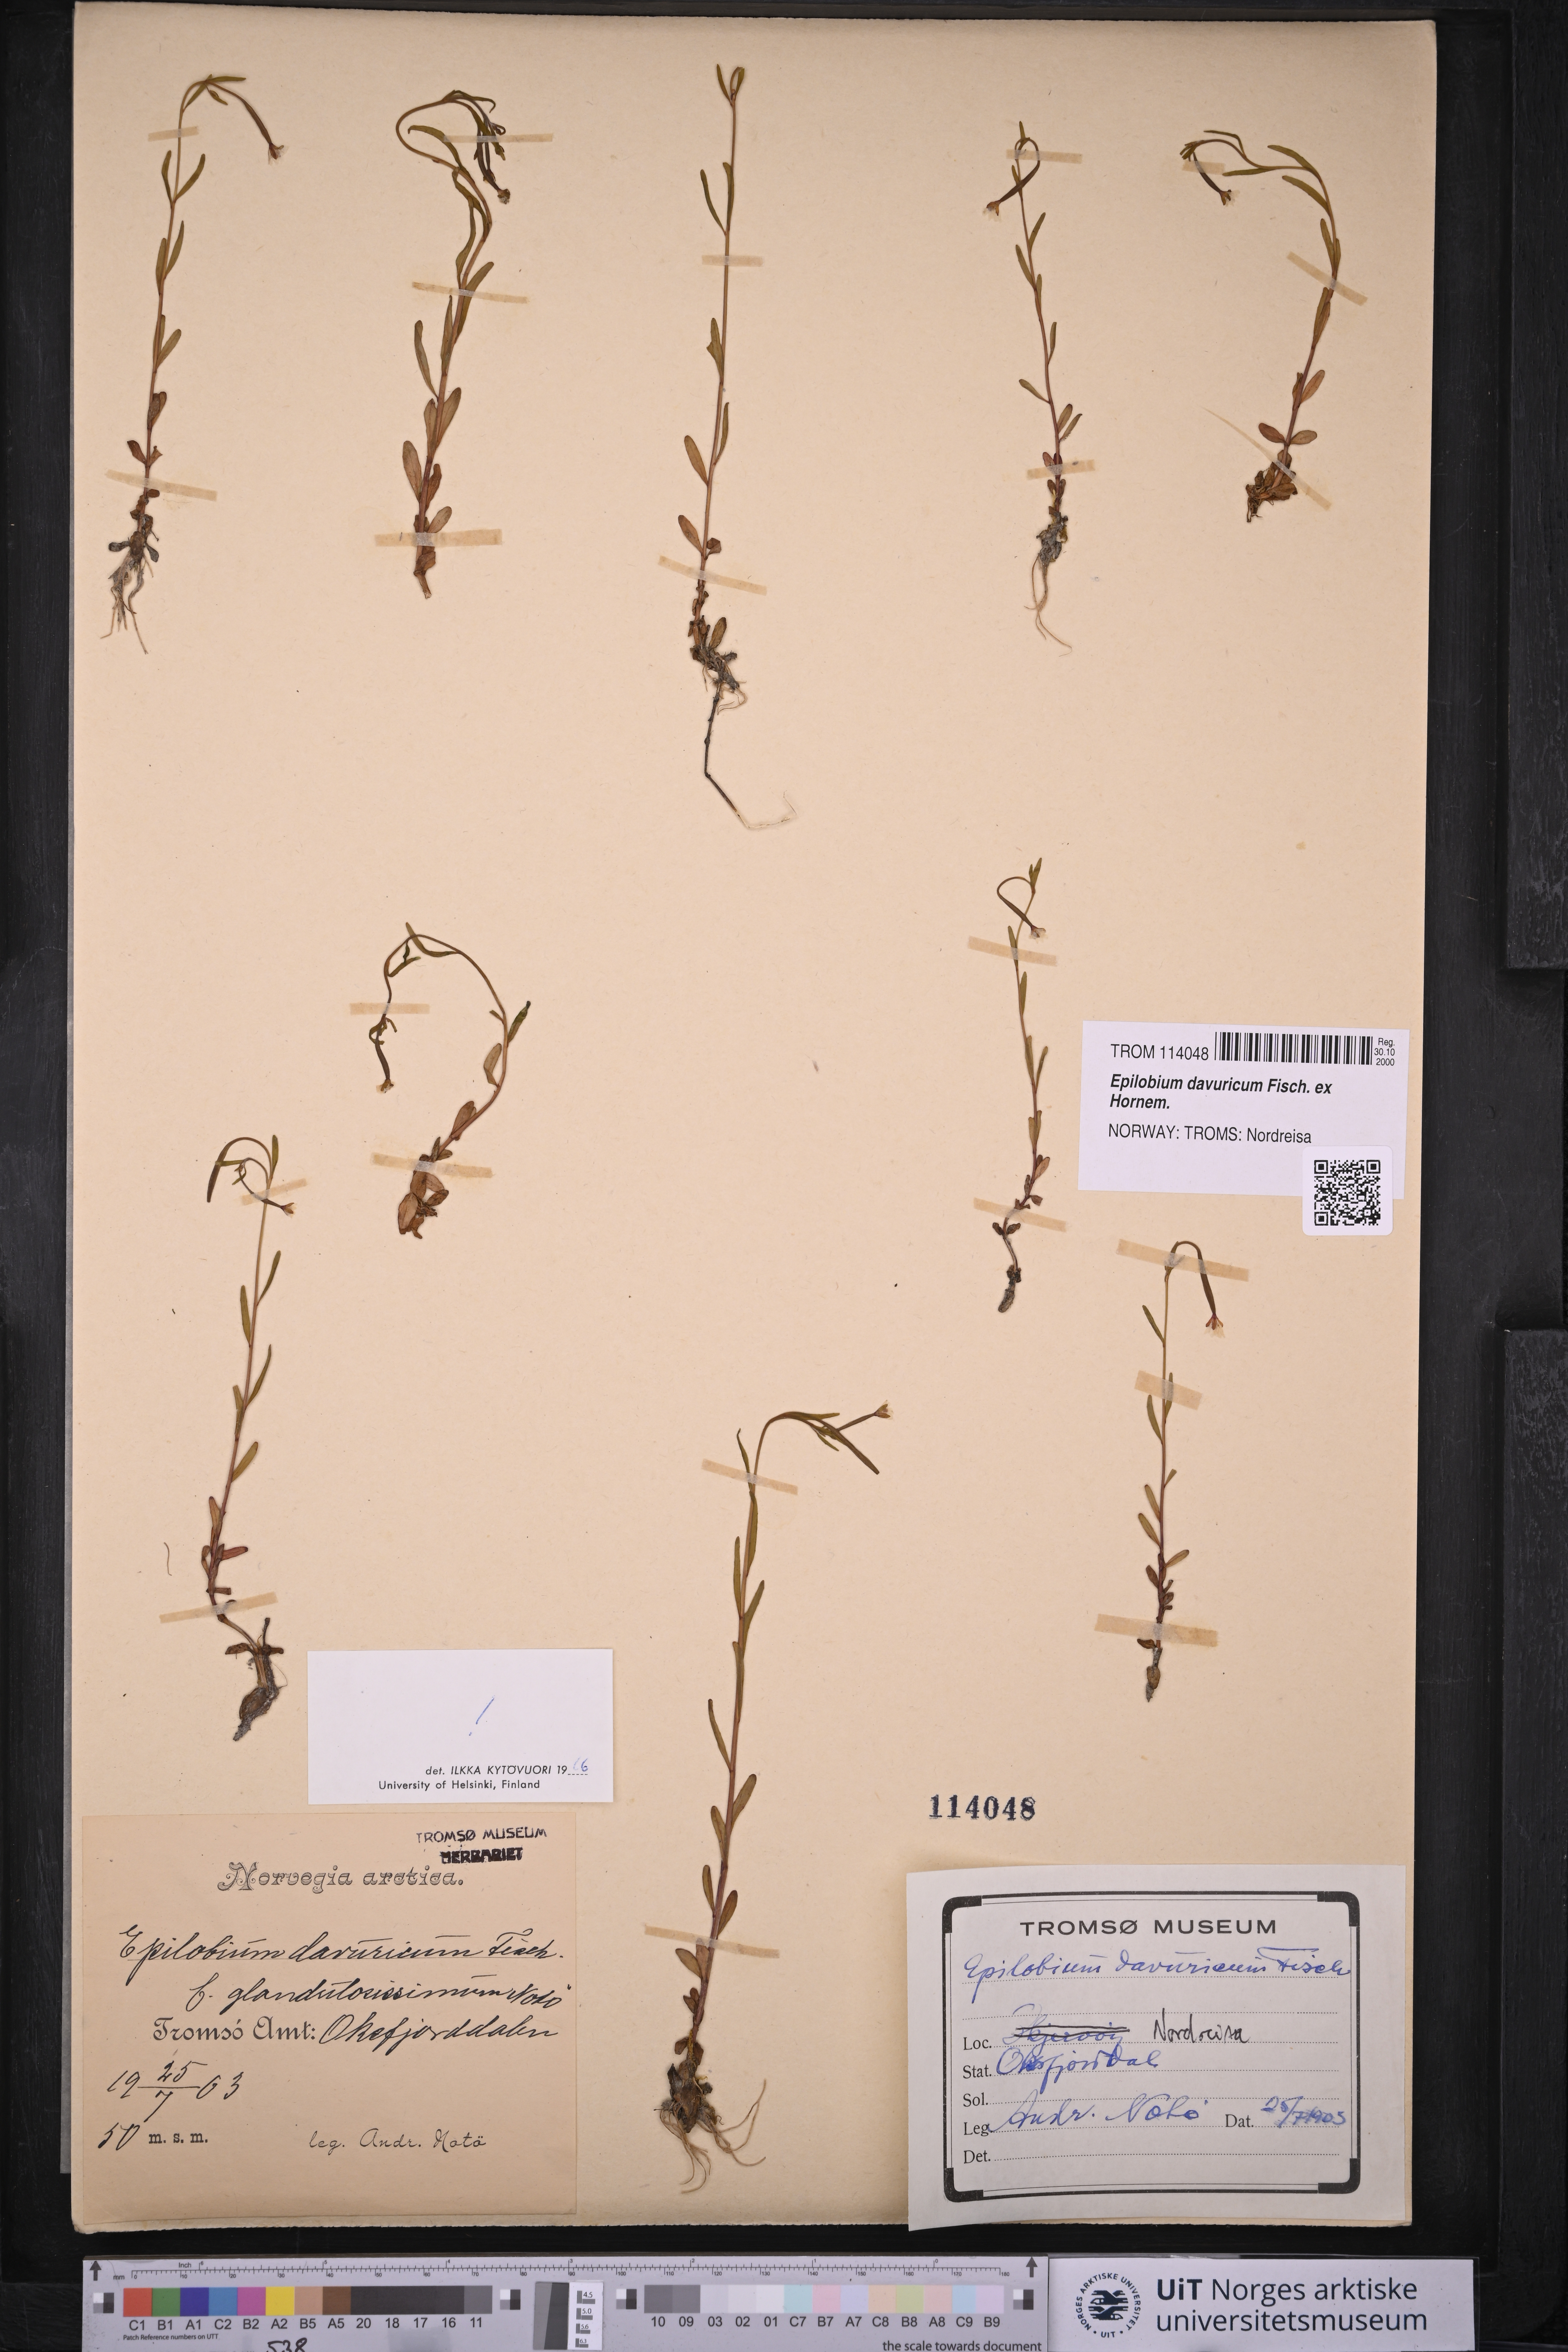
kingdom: Plantae
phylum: Tracheophyta
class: Magnoliopsida
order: Myrtales
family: Onagraceae
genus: Epilobium
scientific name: Epilobium davuricum
